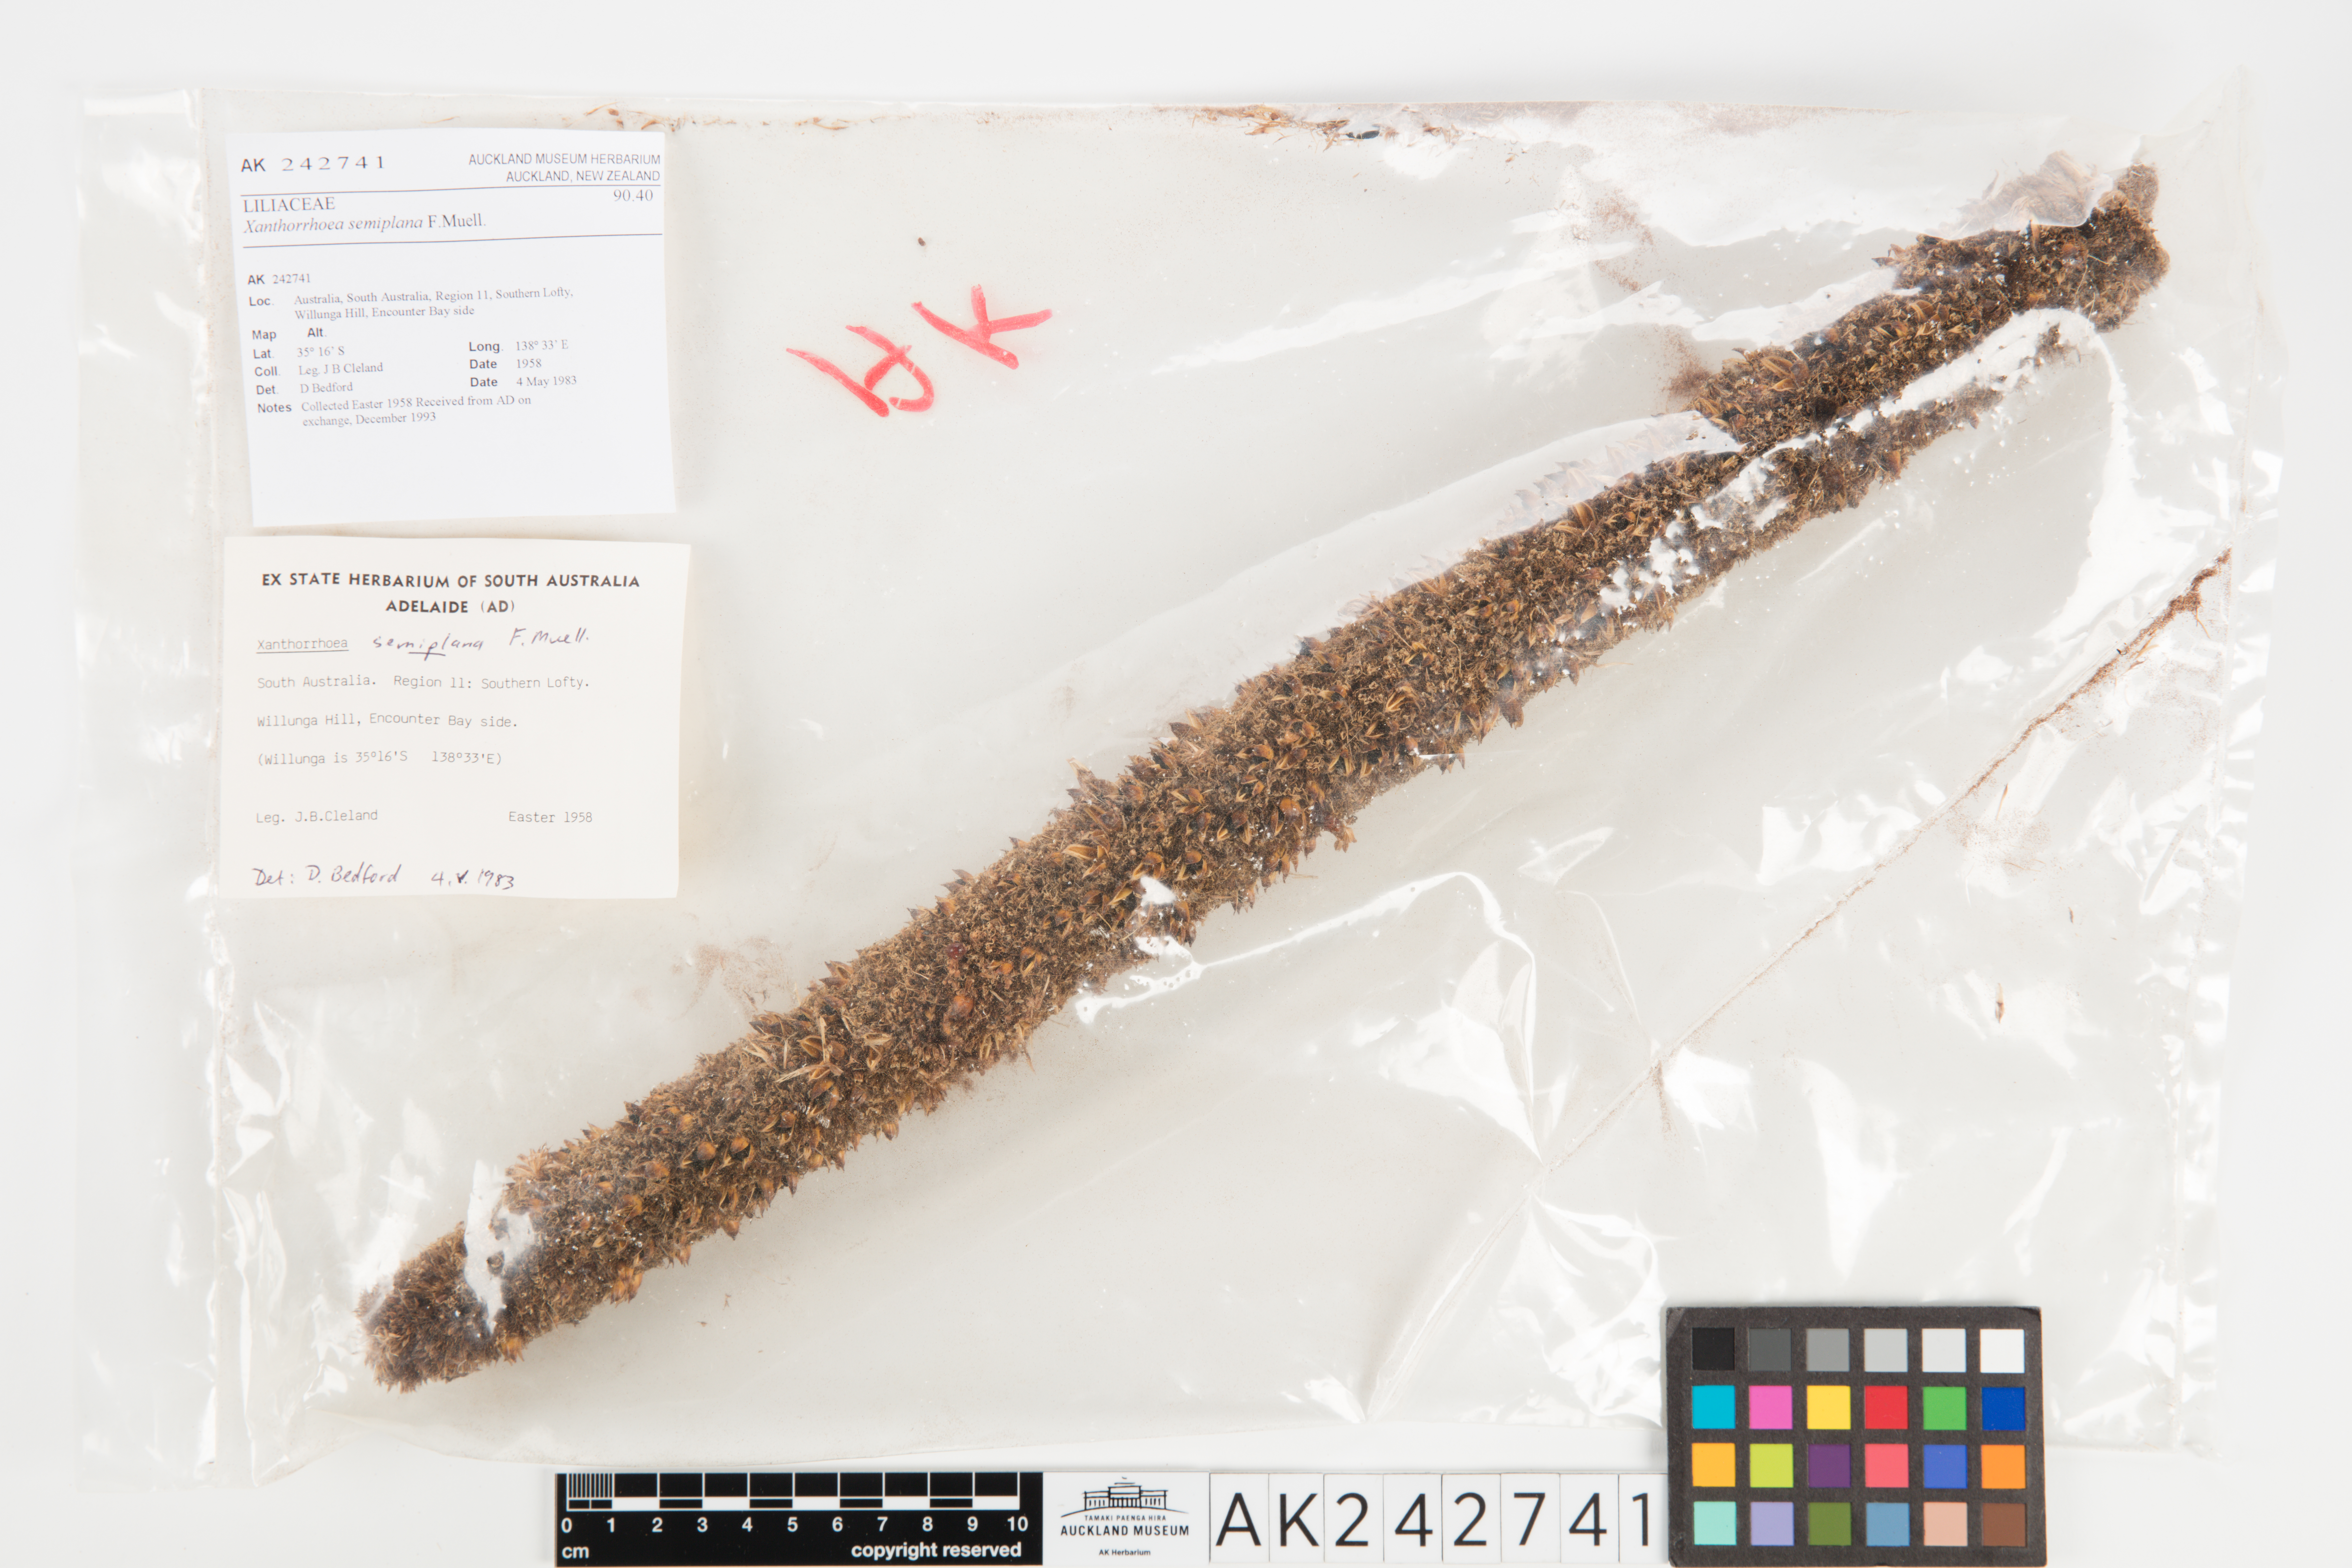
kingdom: Plantae
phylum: Tracheophyta
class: Liliopsida
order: Asparagales
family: Asphodelaceae
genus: Xanthorrhoea
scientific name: Xanthorrhoea semiplana
